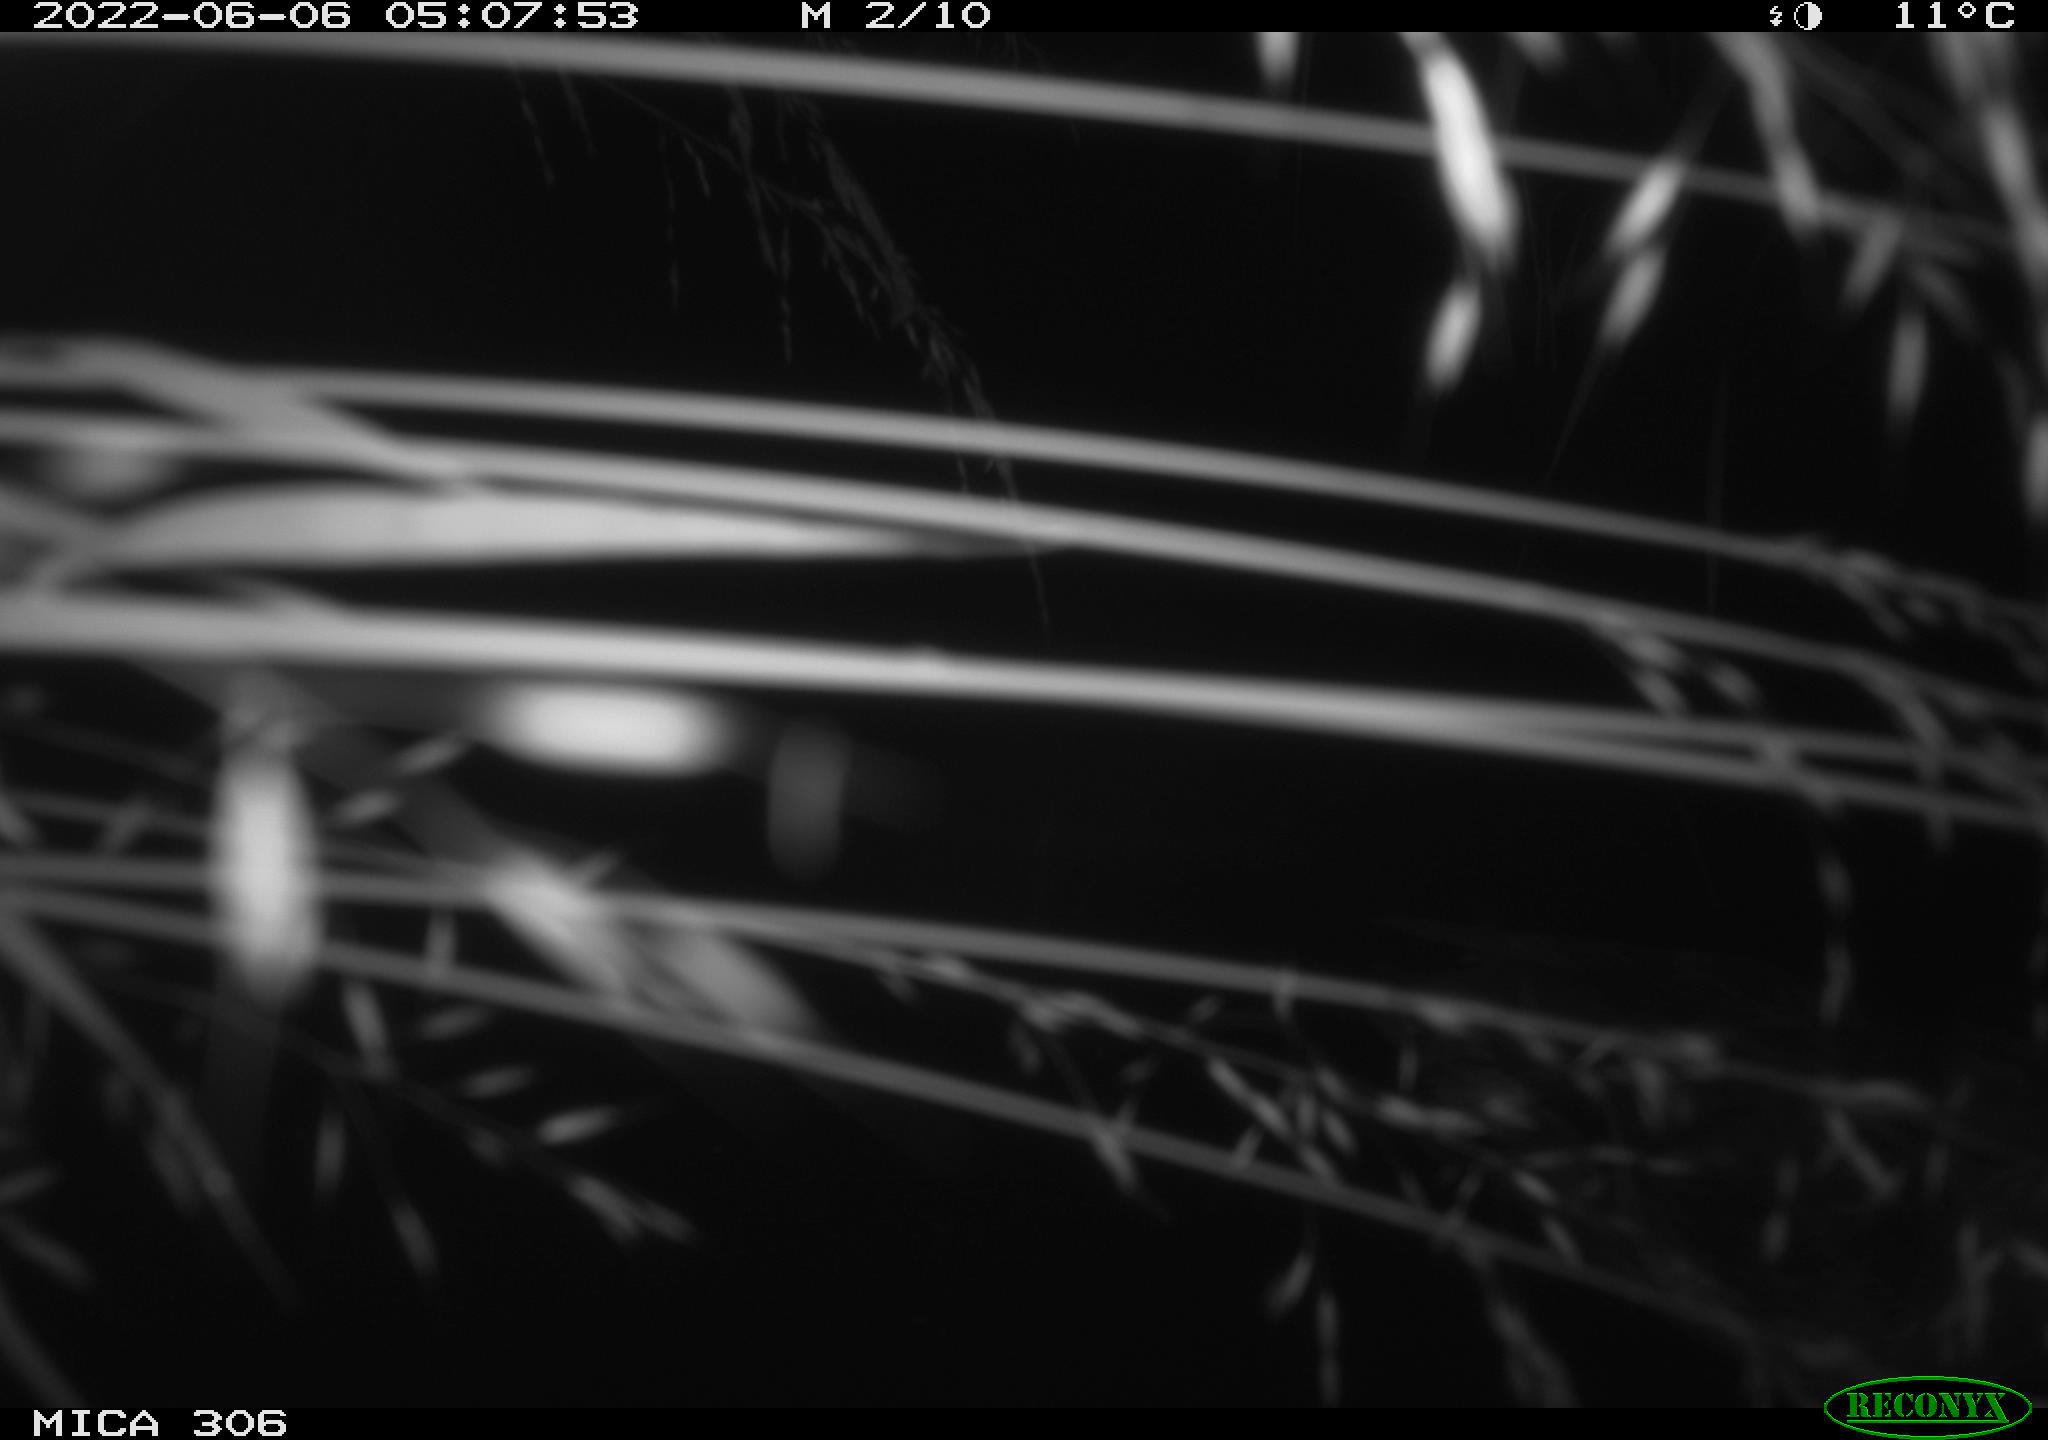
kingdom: Animalia
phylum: Chordata
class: Aves
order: Anseriformes
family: Anatidae
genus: Anas
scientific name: Anas platyrhynchos
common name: Mallard
